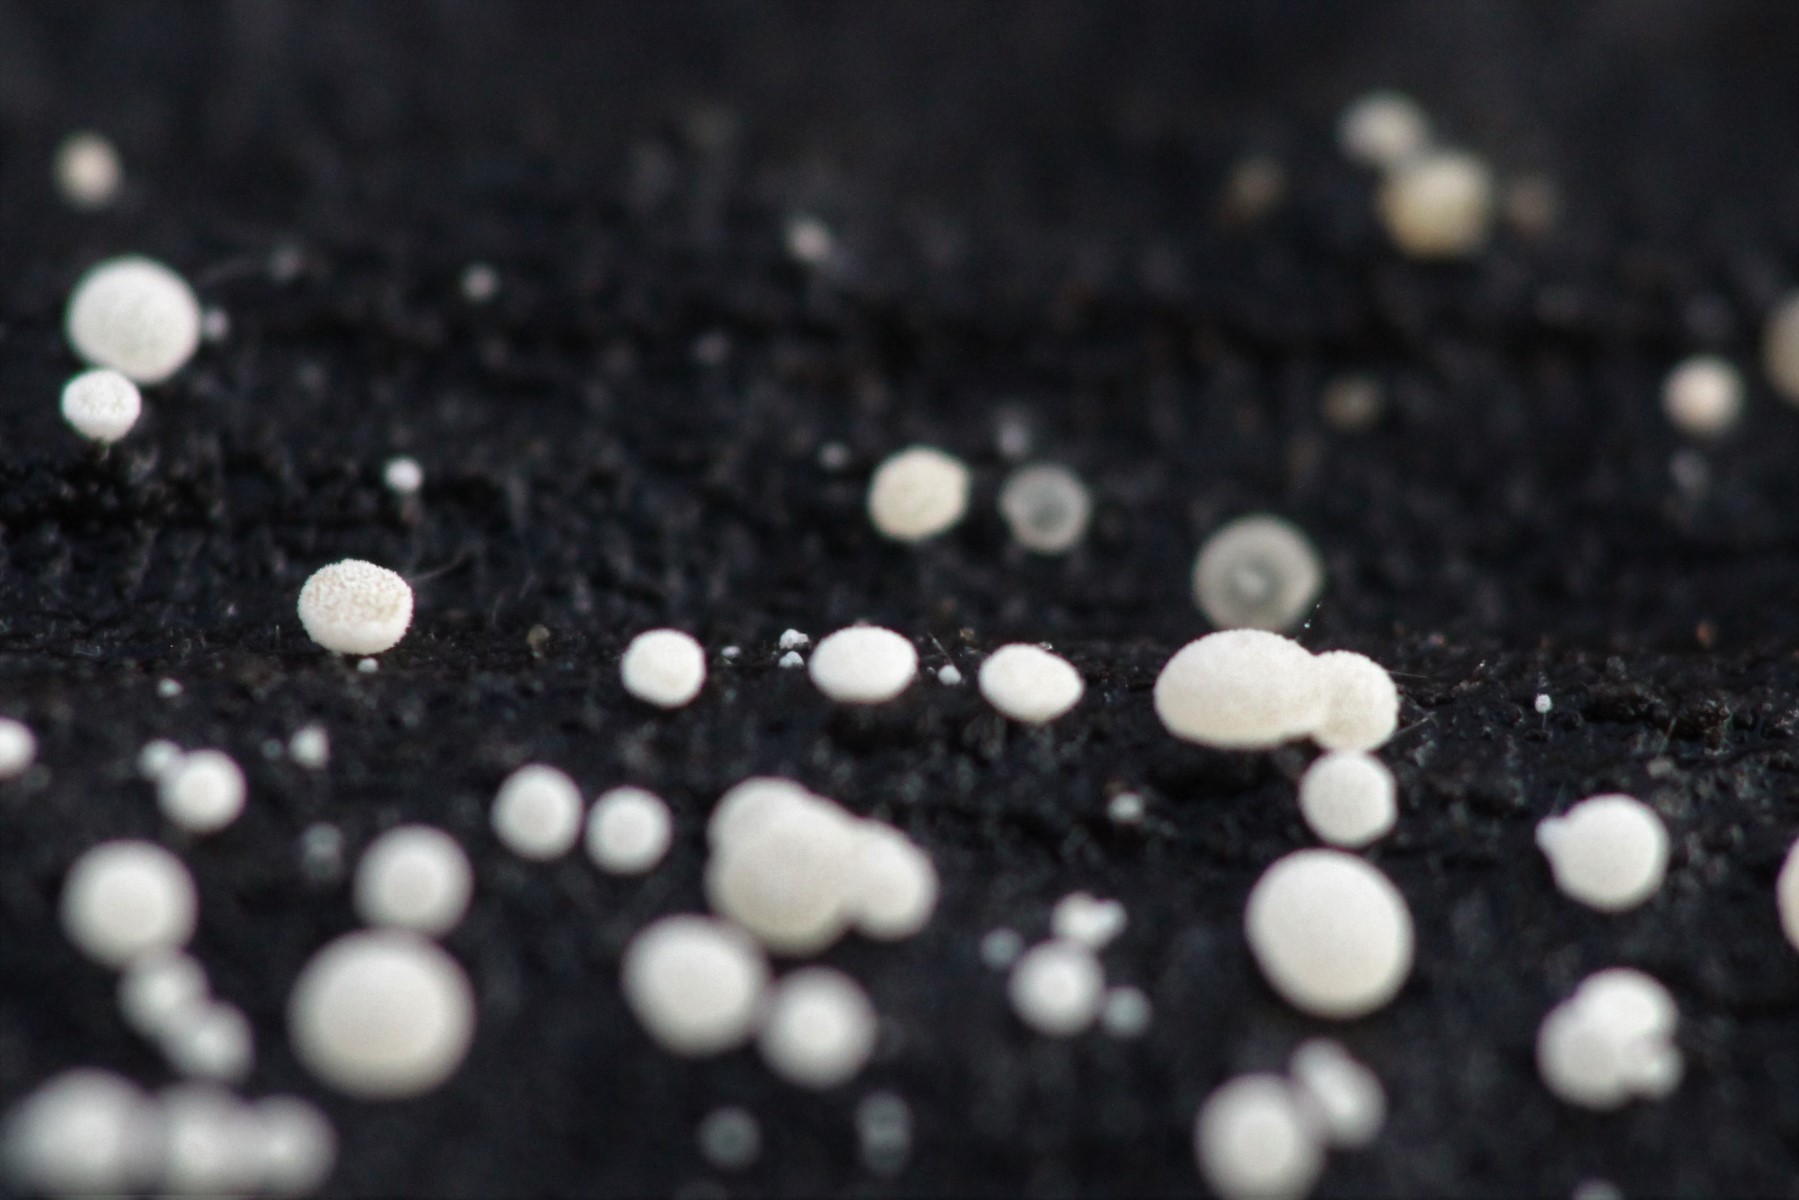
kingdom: Fungi
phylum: Ascomycota
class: Leotiomycetes
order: Helotiales
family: Hyaloscyphaceae
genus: Polydesmia
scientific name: Polydesmia pruinosa
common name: dunskive
